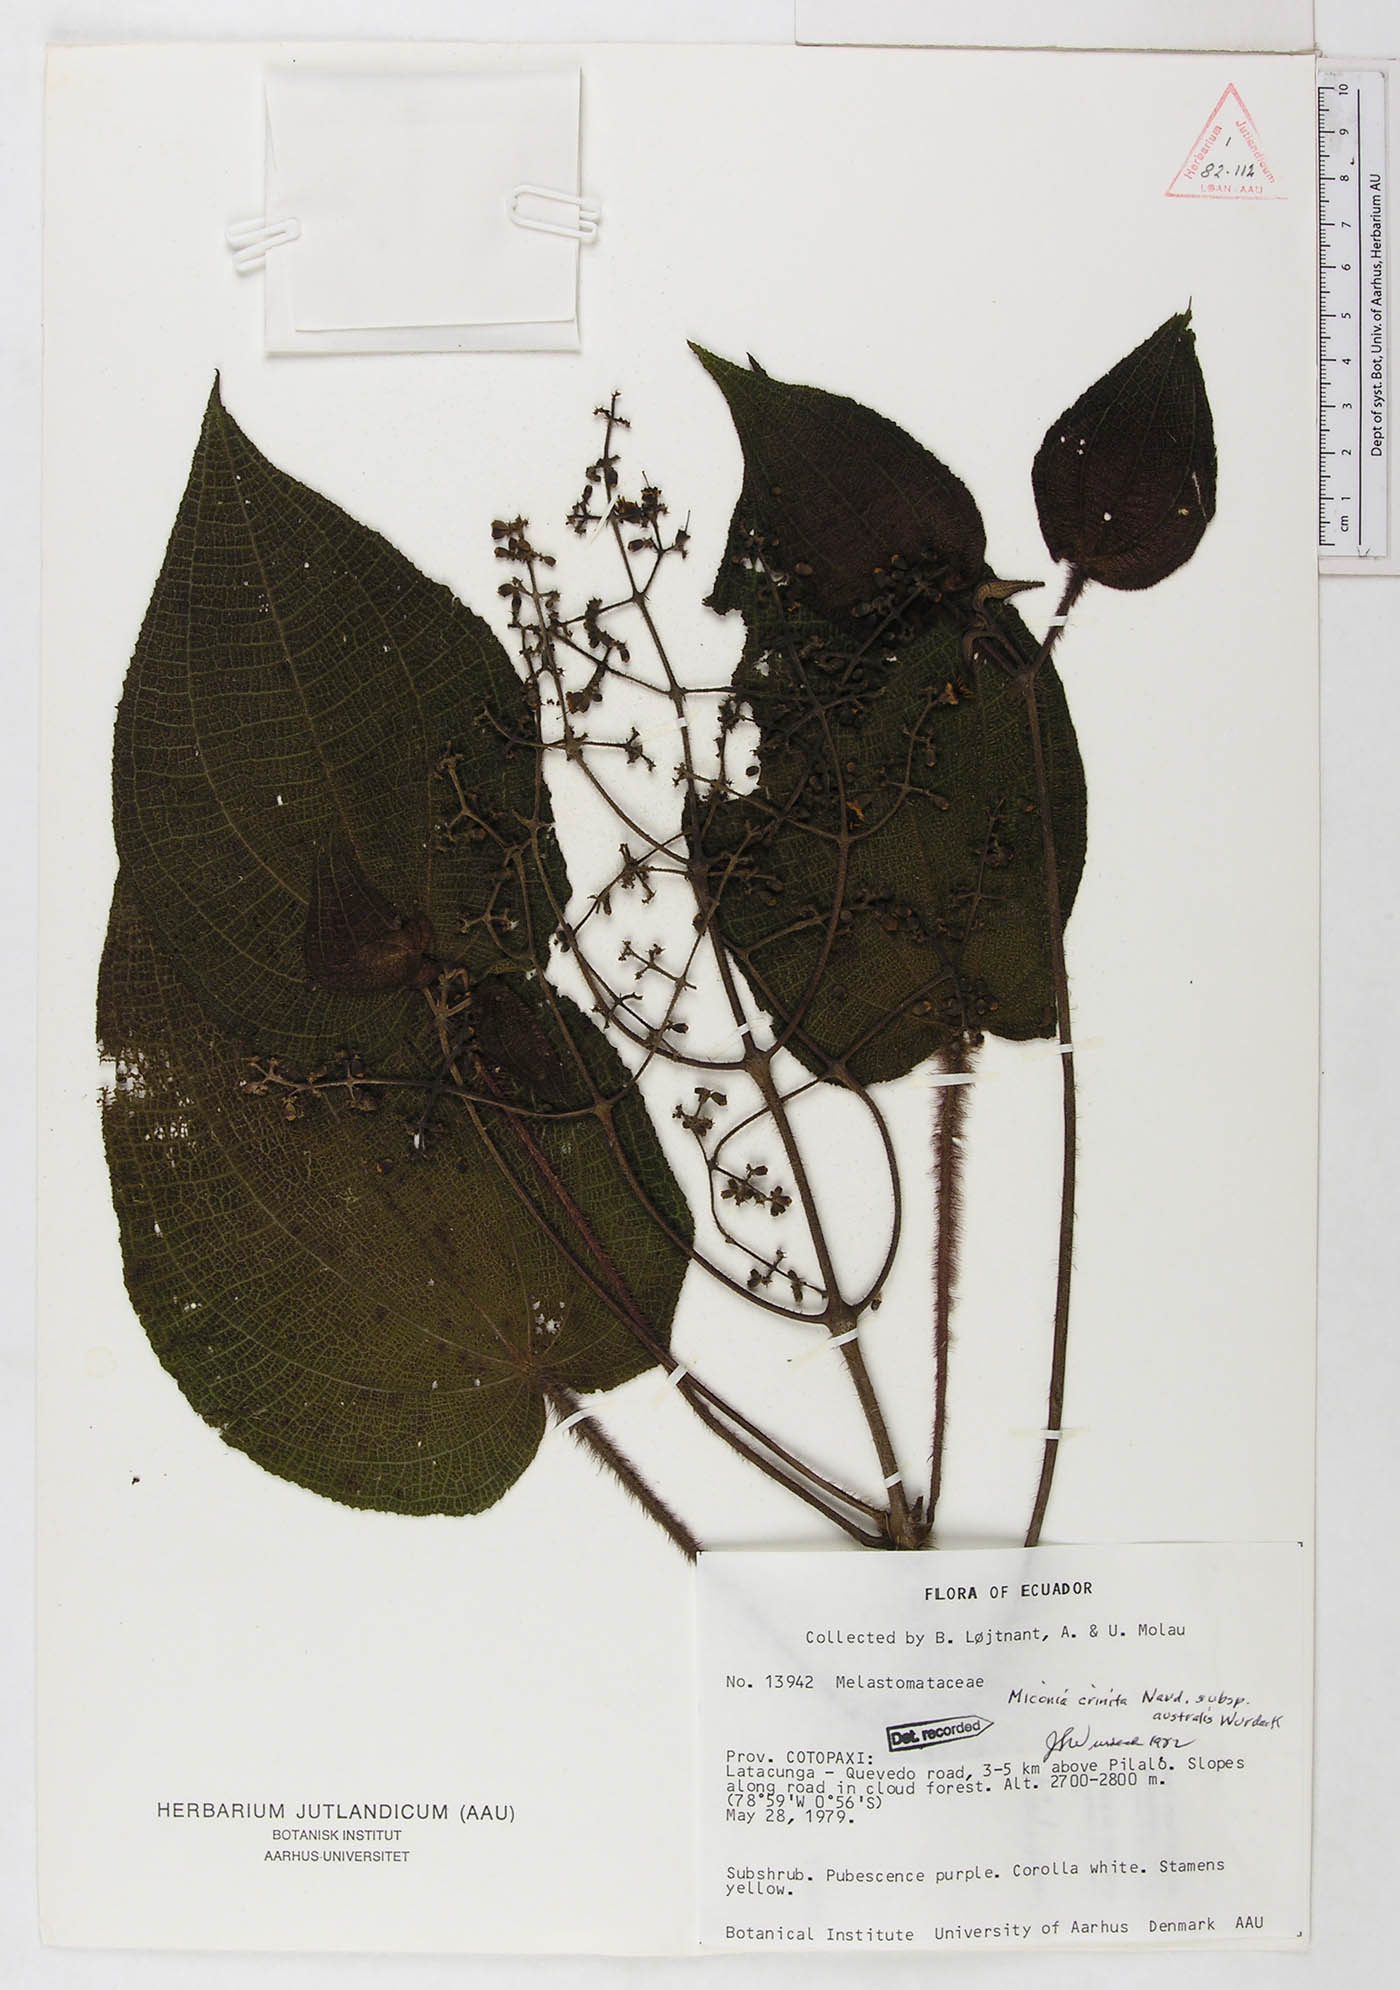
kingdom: Plantae
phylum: Tracheophyta
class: Magnoliopsida
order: Myrtales
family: Melastomataceae
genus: Miconia
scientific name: Miconia crinita
